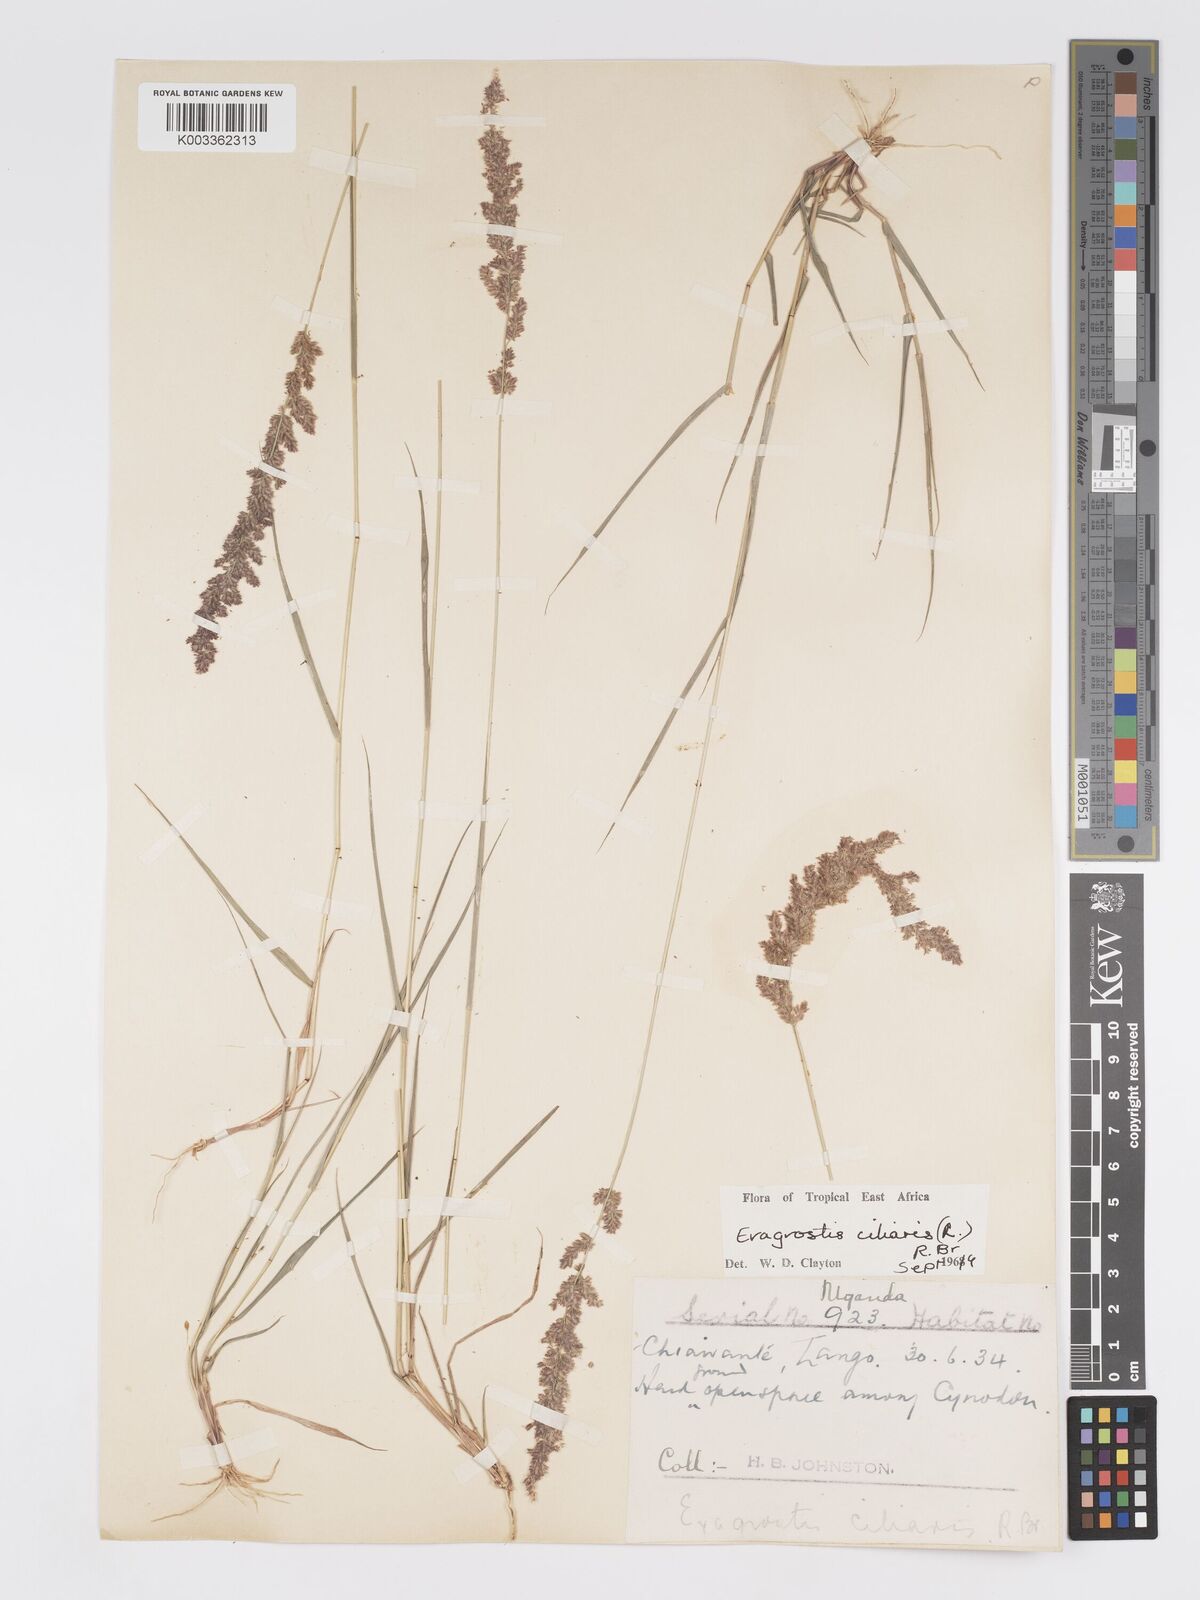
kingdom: Plantae
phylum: Tracheophyta
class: Liliopsida
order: Poales
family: Poaceae
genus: Eragrostis
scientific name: Eragrostis ciliaris
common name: Gophertail lovegrass
